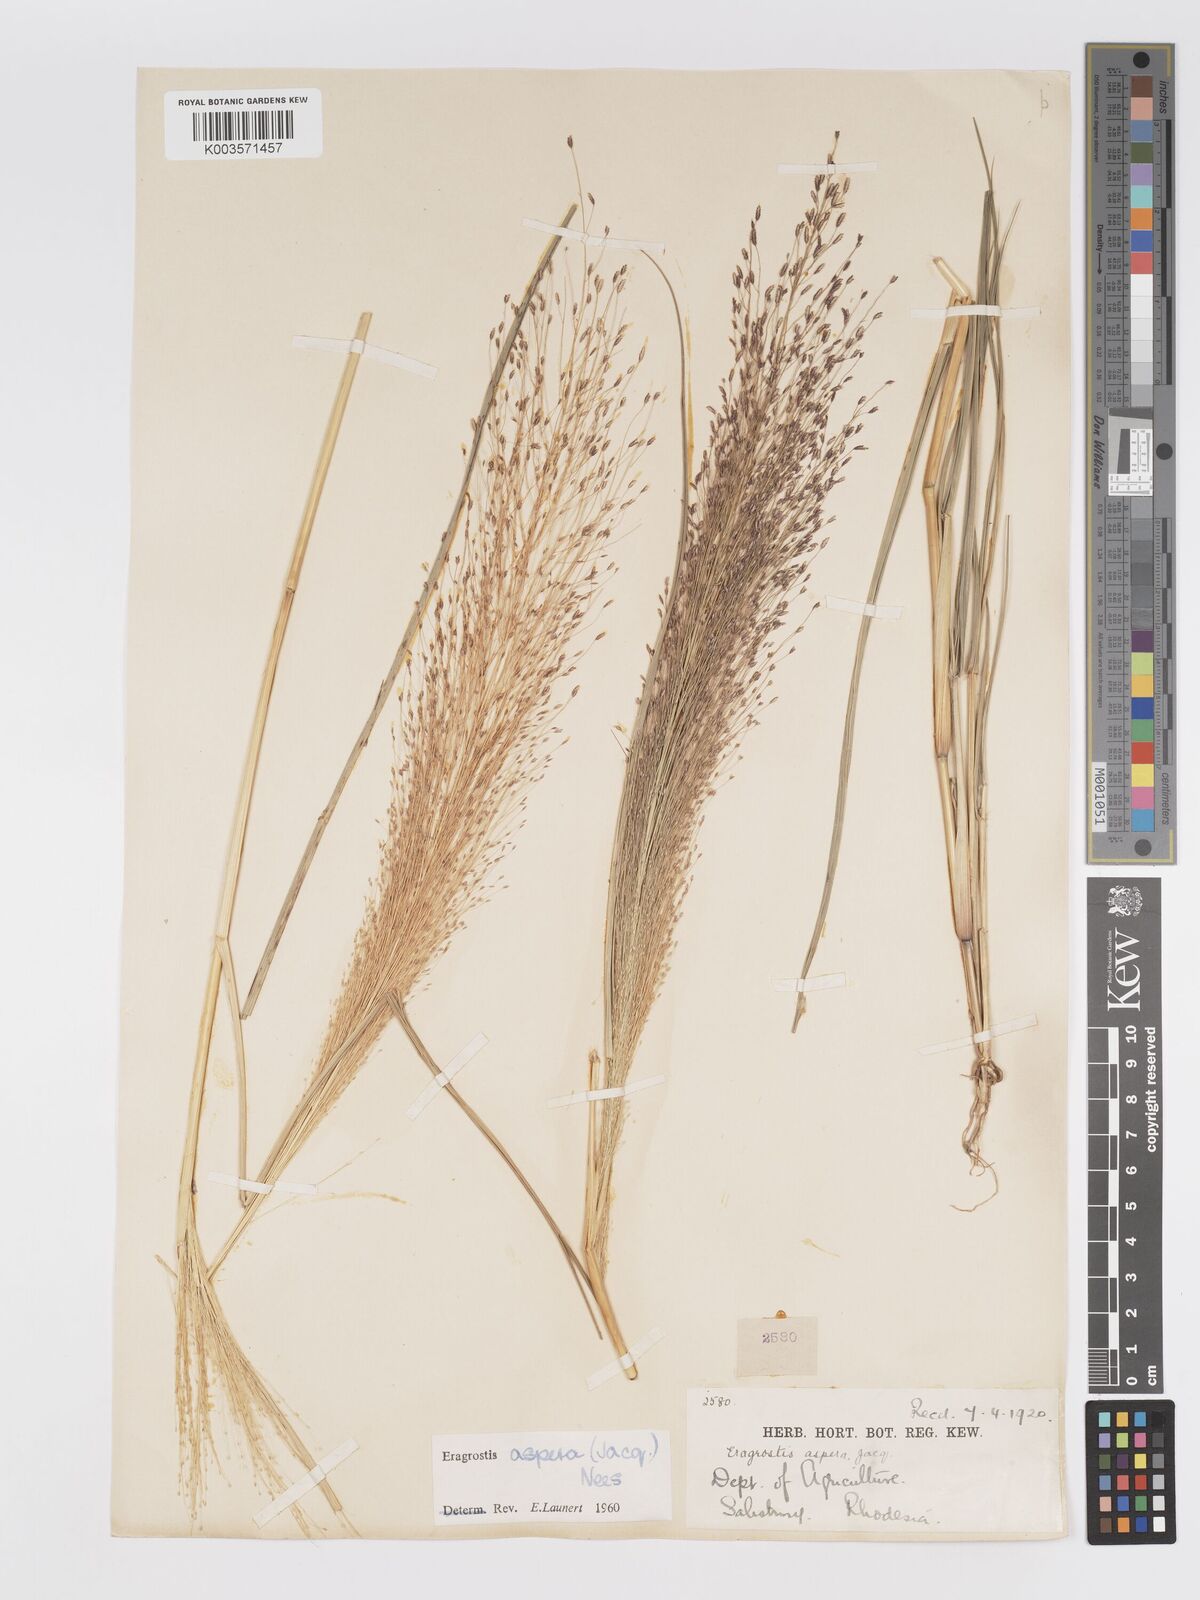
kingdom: Plantae
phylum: Tracheophyta
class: Liliopsida
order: Poales
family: Poaceae
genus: Eragrostis
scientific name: Eragrostis aspera
